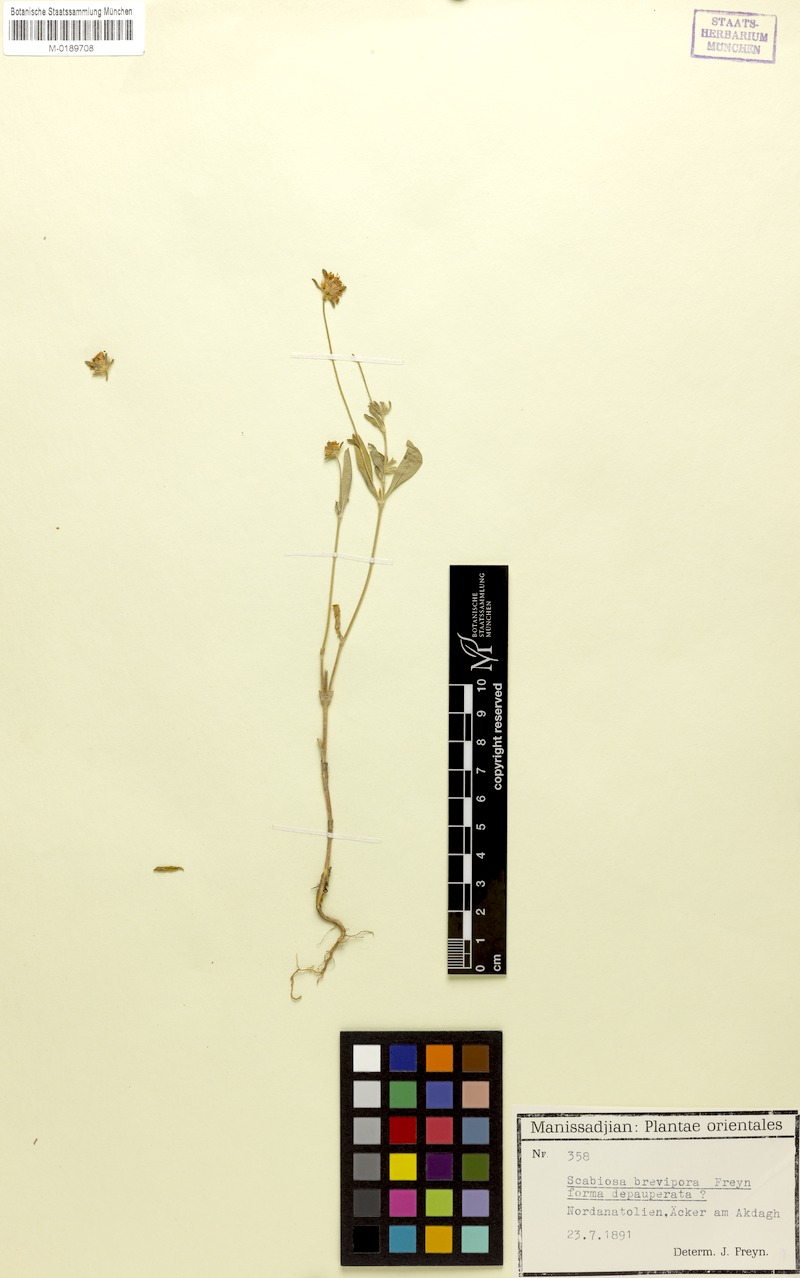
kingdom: Plantae
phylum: Tracheophyta
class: Magnoliopsida
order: Dipsacales
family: Caprifoliaceae
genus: Lomelosia
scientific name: Lomelosia micrantha
